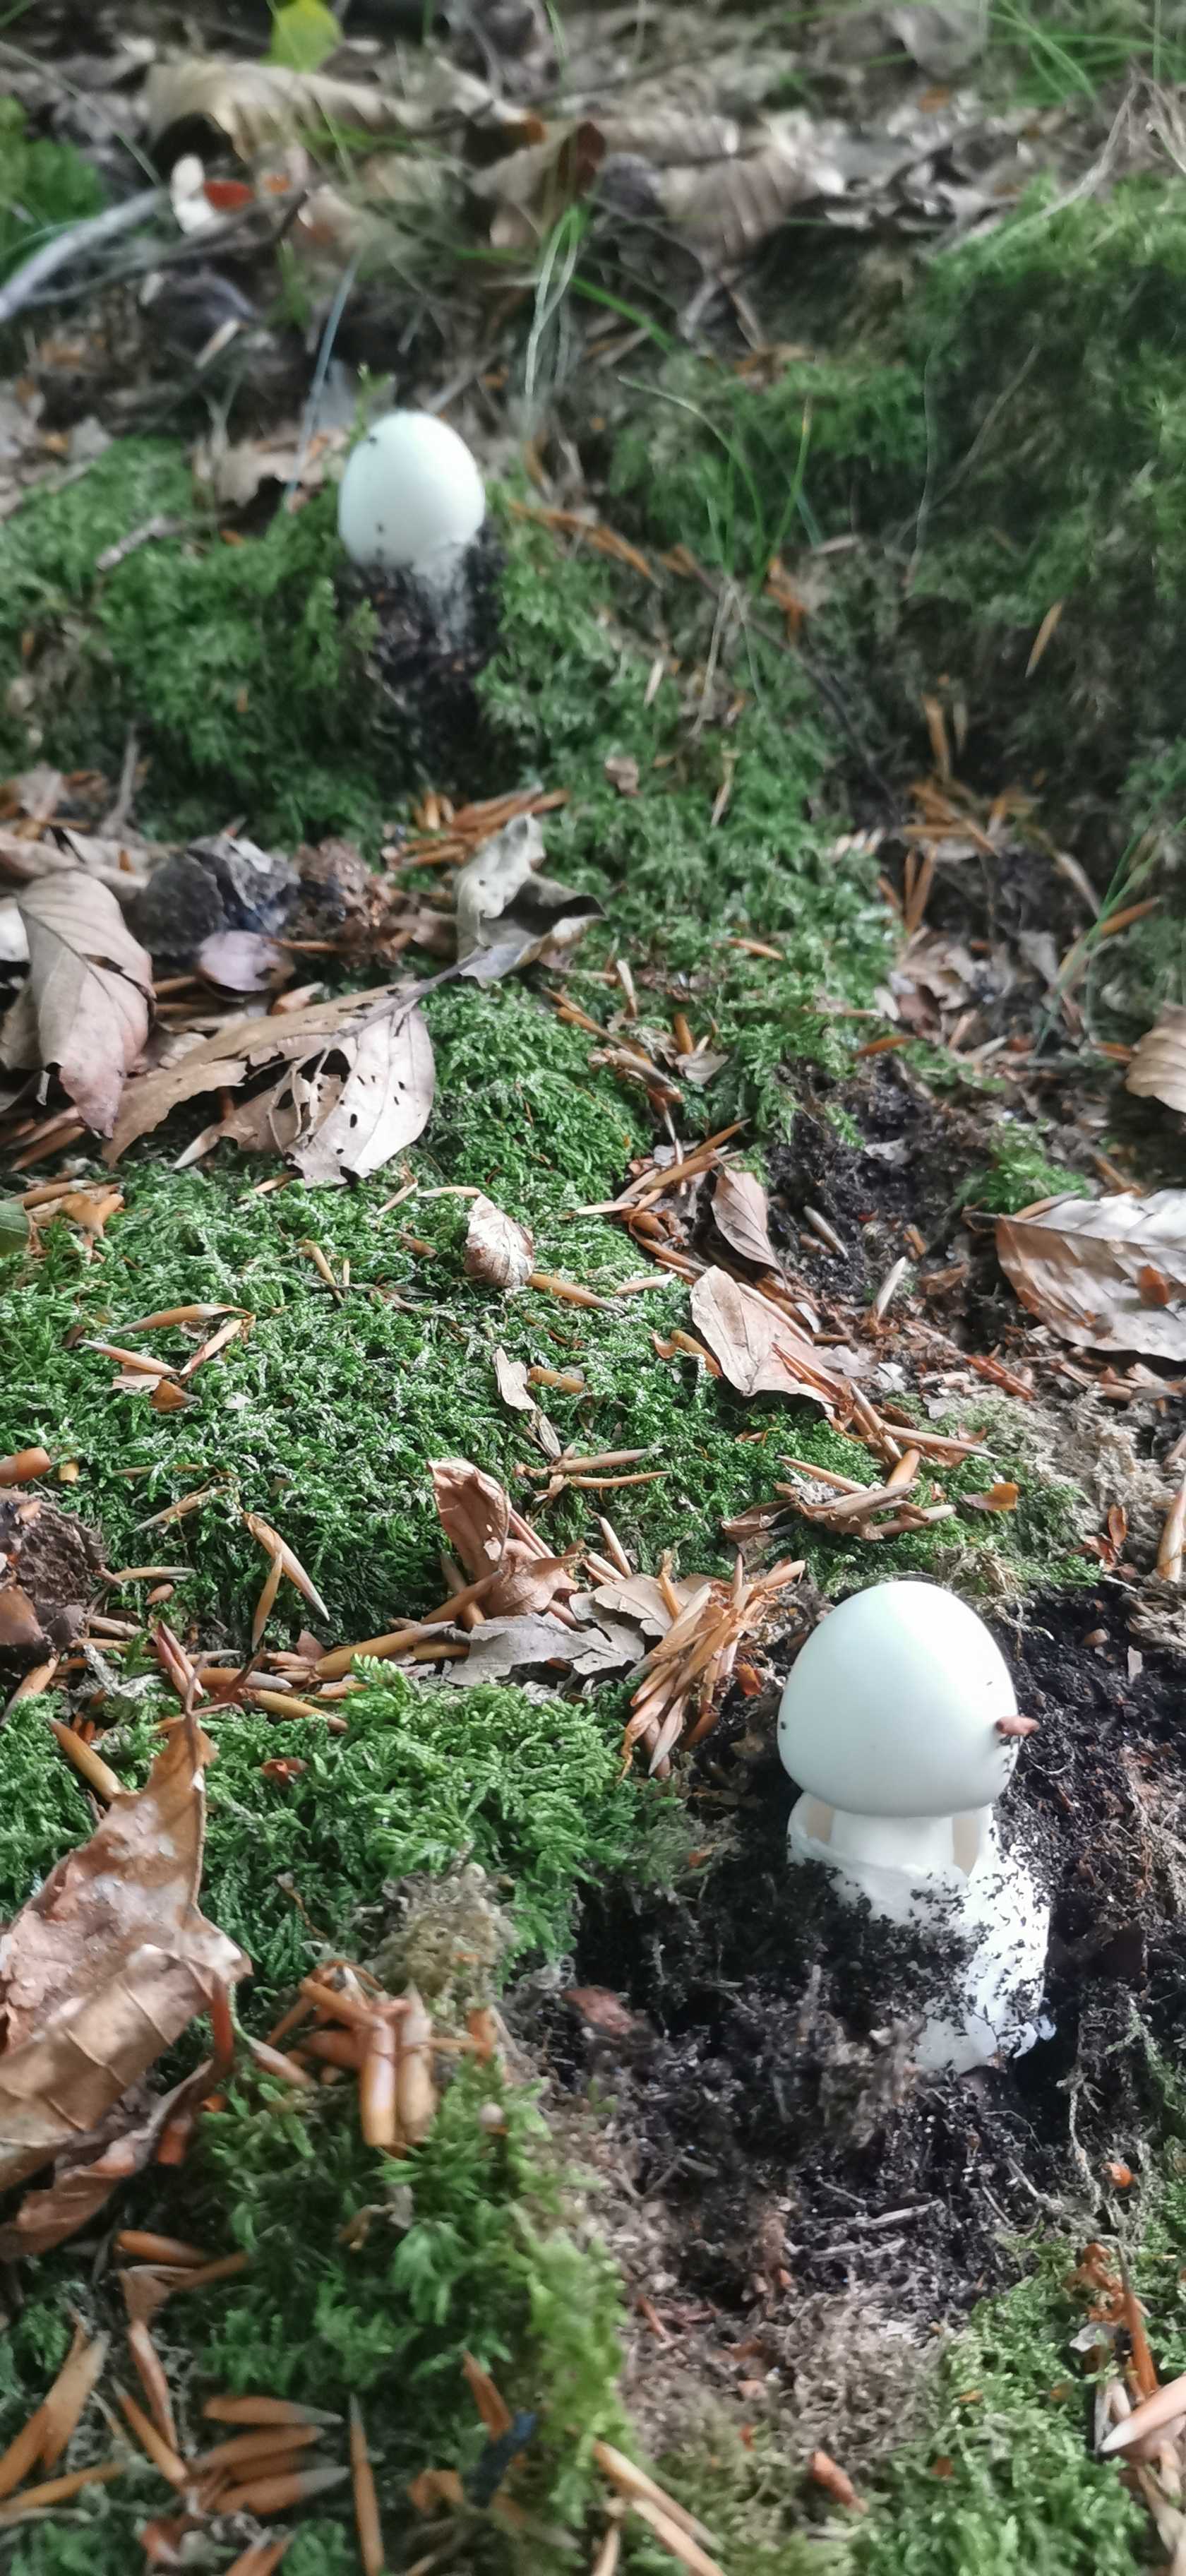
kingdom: Fungi
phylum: Basidiomycota
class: Agaricomycetes
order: Agaricales
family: Amanitaceae
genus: Amanita
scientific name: Amanita virosa
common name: snehvid fluesvamp
